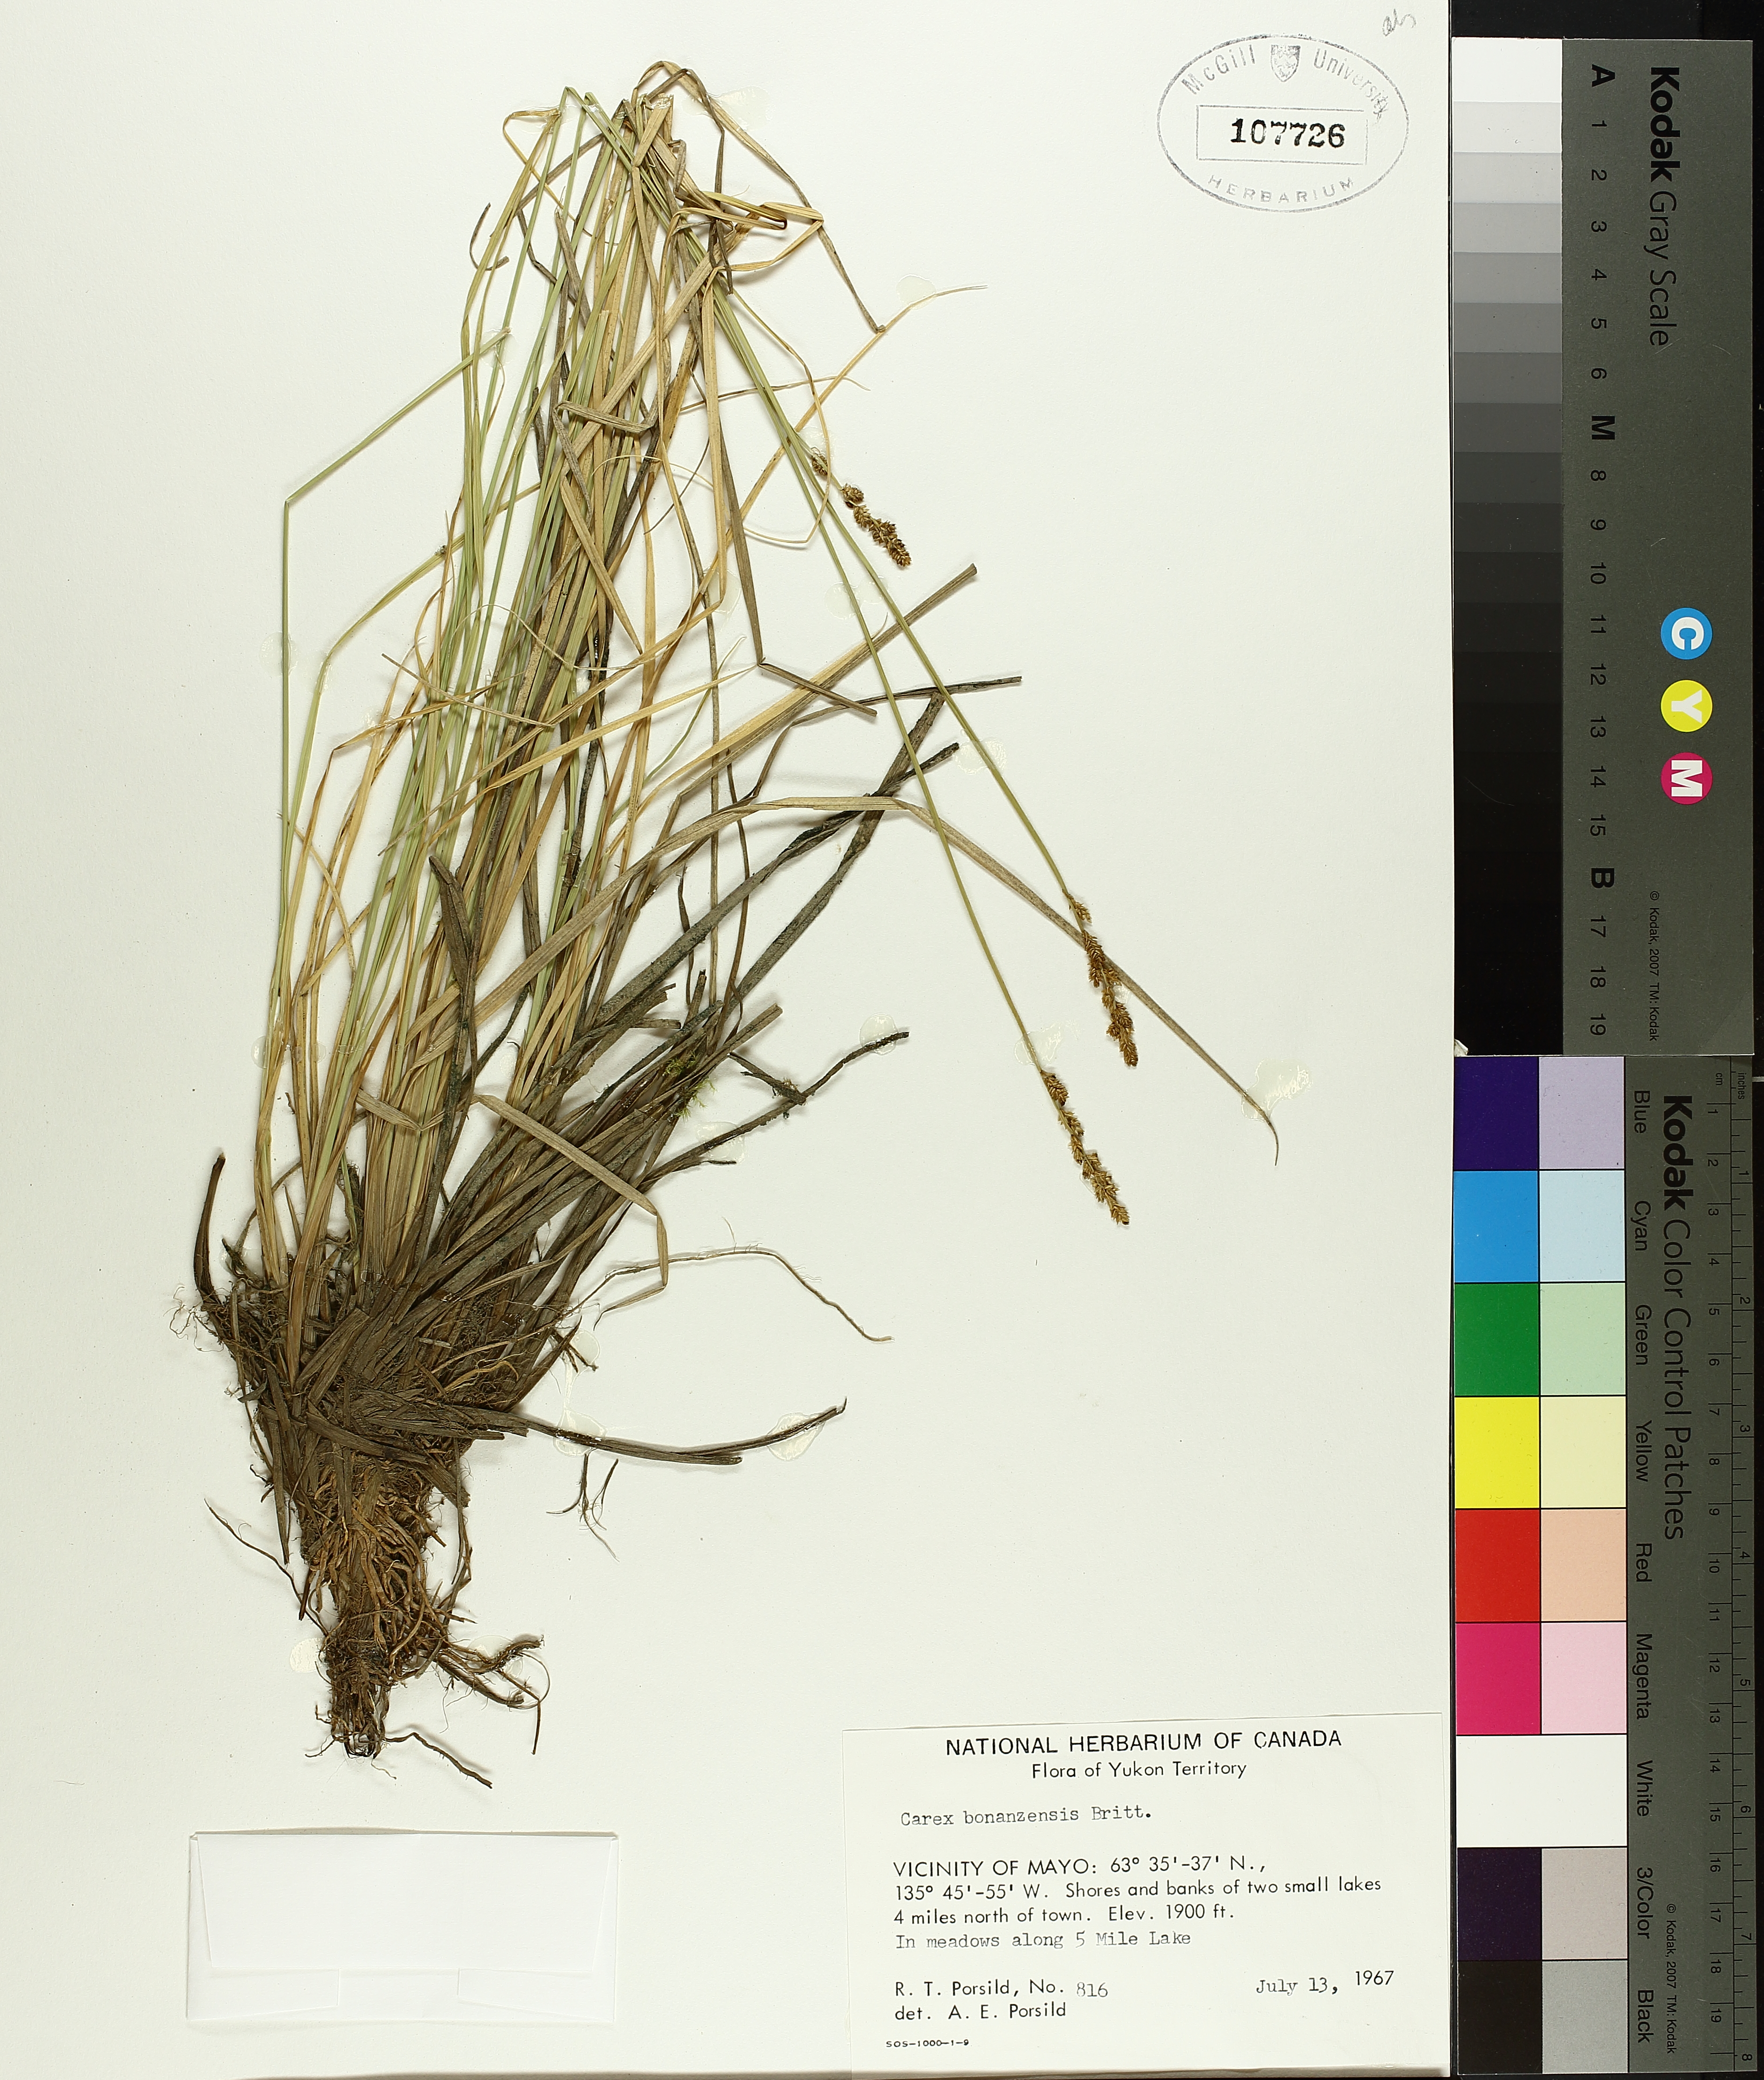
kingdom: Plantae
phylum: Tracheophyta
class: Liliopsida
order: Poales
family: Cyperaceae
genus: Carex
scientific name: Carex bonanzensis
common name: Yukon sedge
